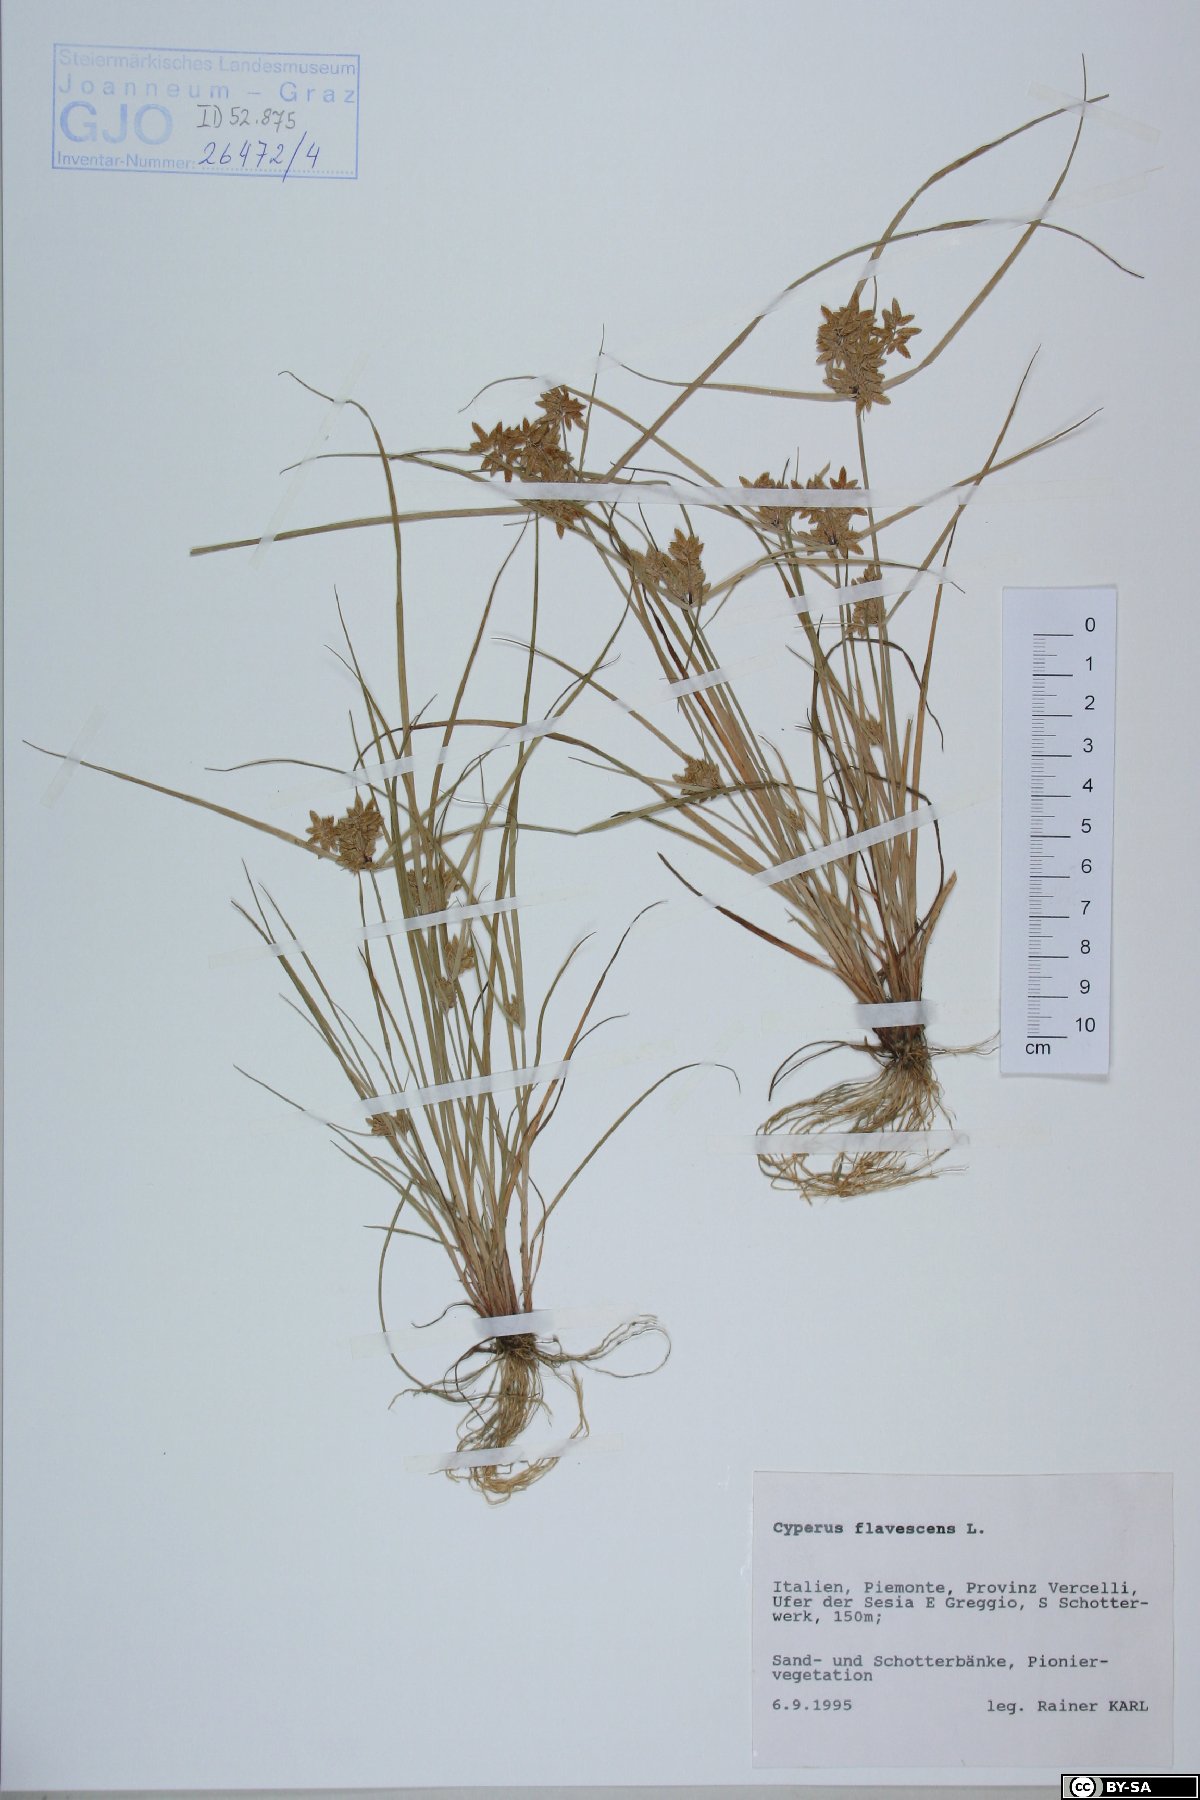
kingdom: Plantae
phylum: Tracheophyta
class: Liliopsida
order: Poales
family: Cyperaceae
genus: Cyperus
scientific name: Cyperus flavescens
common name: Yellow galingale
